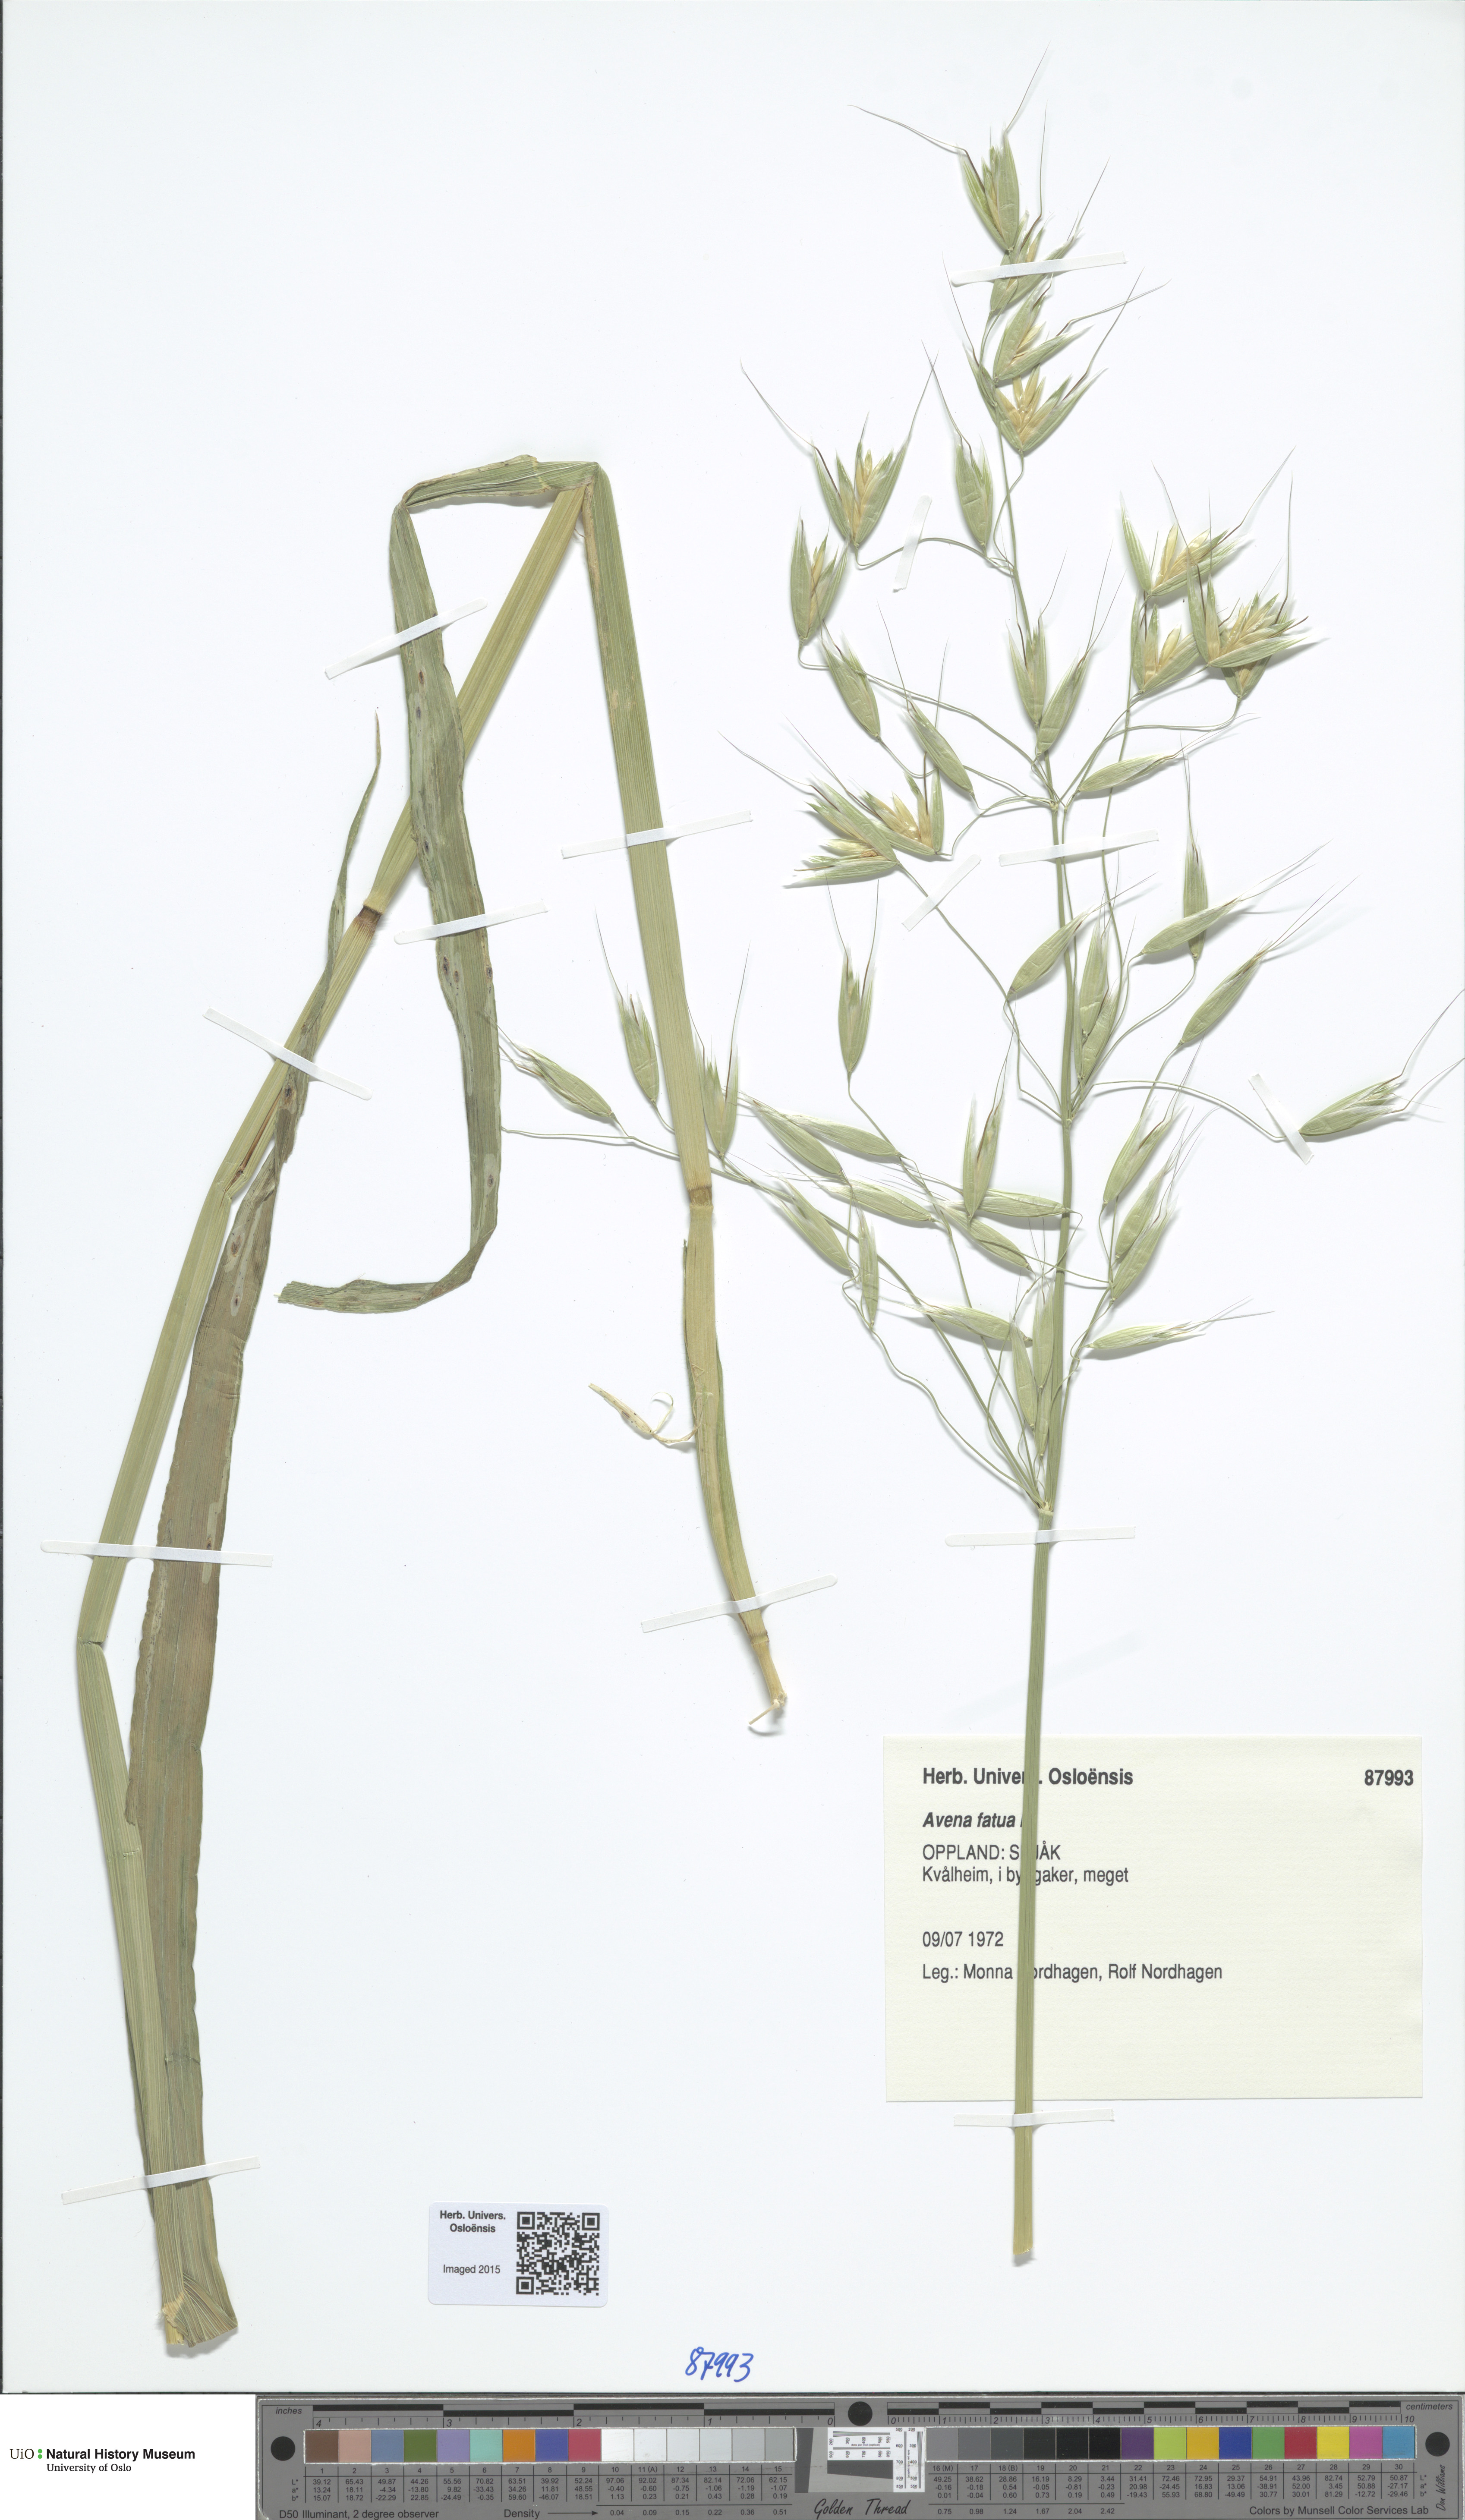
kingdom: Plantae
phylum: Tracheophyta
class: Liliopsida
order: Poales
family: Poaceae
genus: Avena
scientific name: Avena fatua
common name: Wild oat
